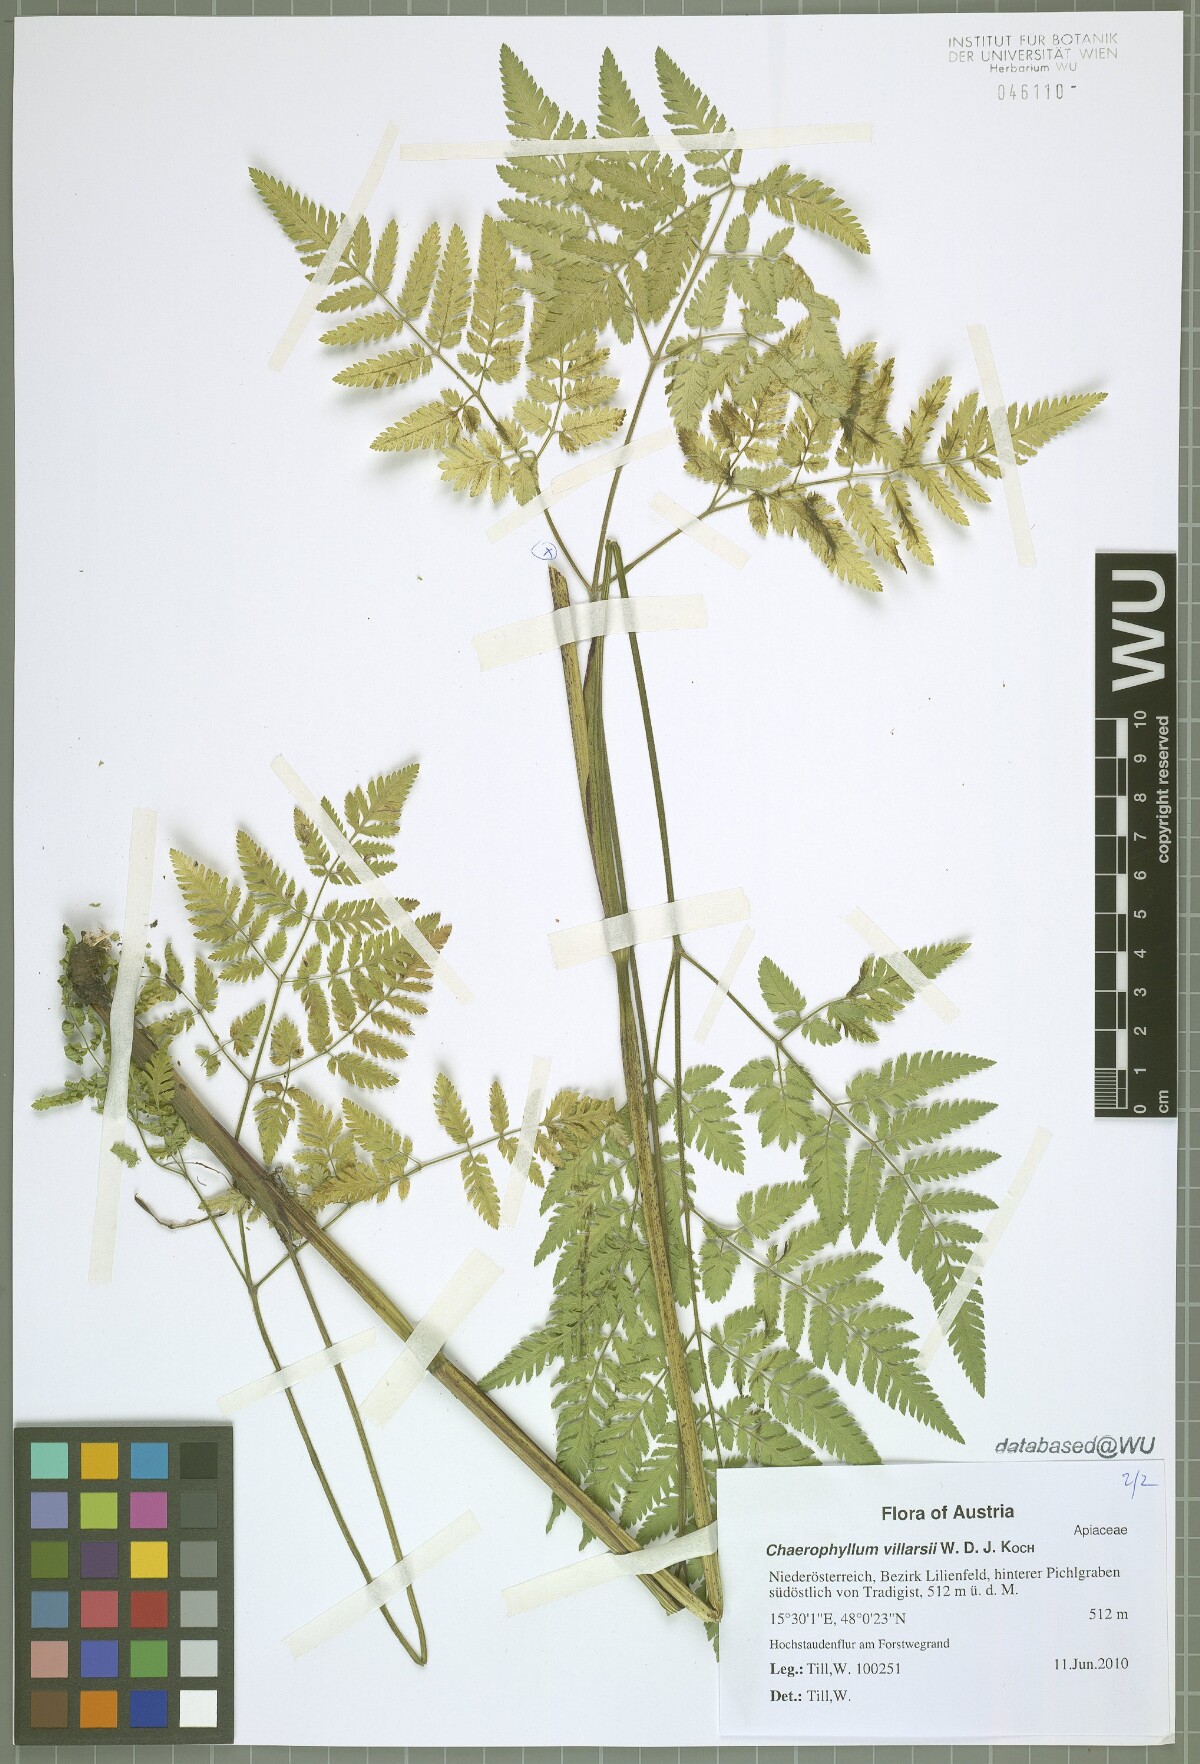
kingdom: Plantae
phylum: Tracheophyta
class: Magnoliopsida
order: Apiales
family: Apiaceae
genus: Chaerophyllum
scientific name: Chaerophyllum villarsii
